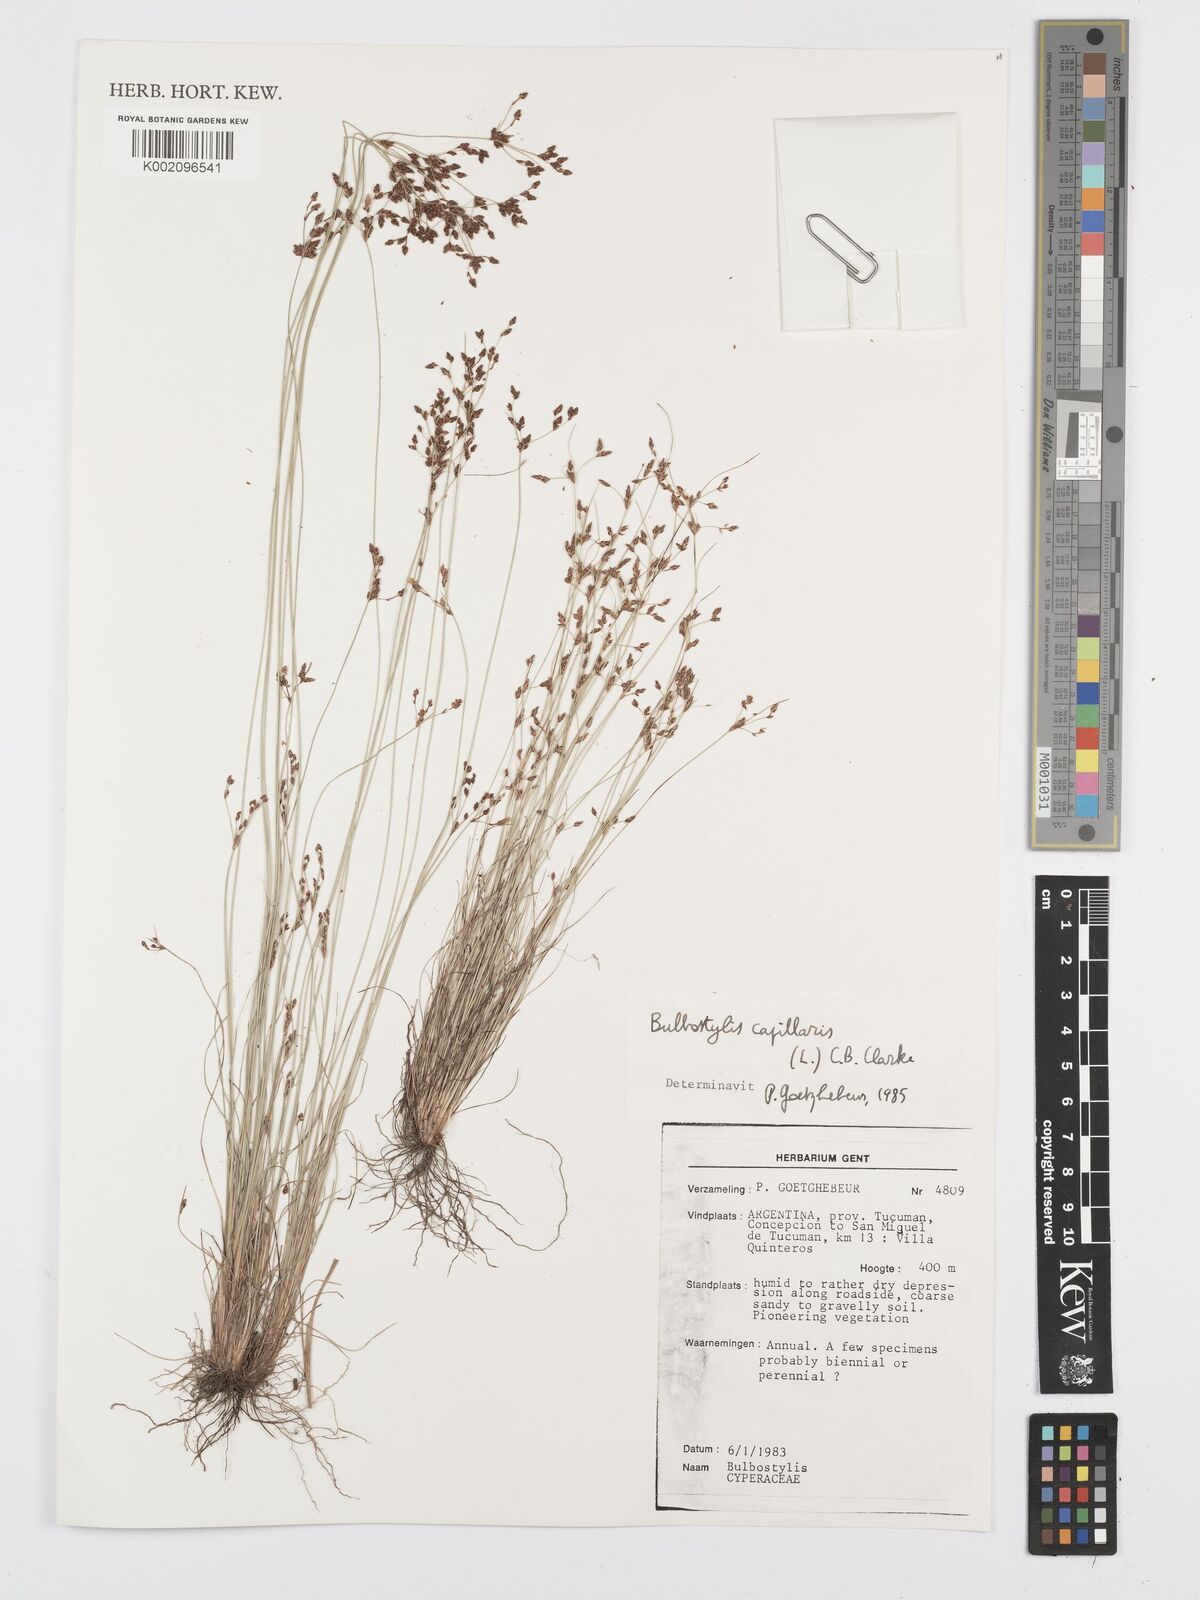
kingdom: Plantae
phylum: Tracheophyta
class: Liliopsida
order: Poales
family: Cyperaceae
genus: Bulbostylis
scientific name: Bulbostylis capillaris
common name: Densetuft hairsedge
